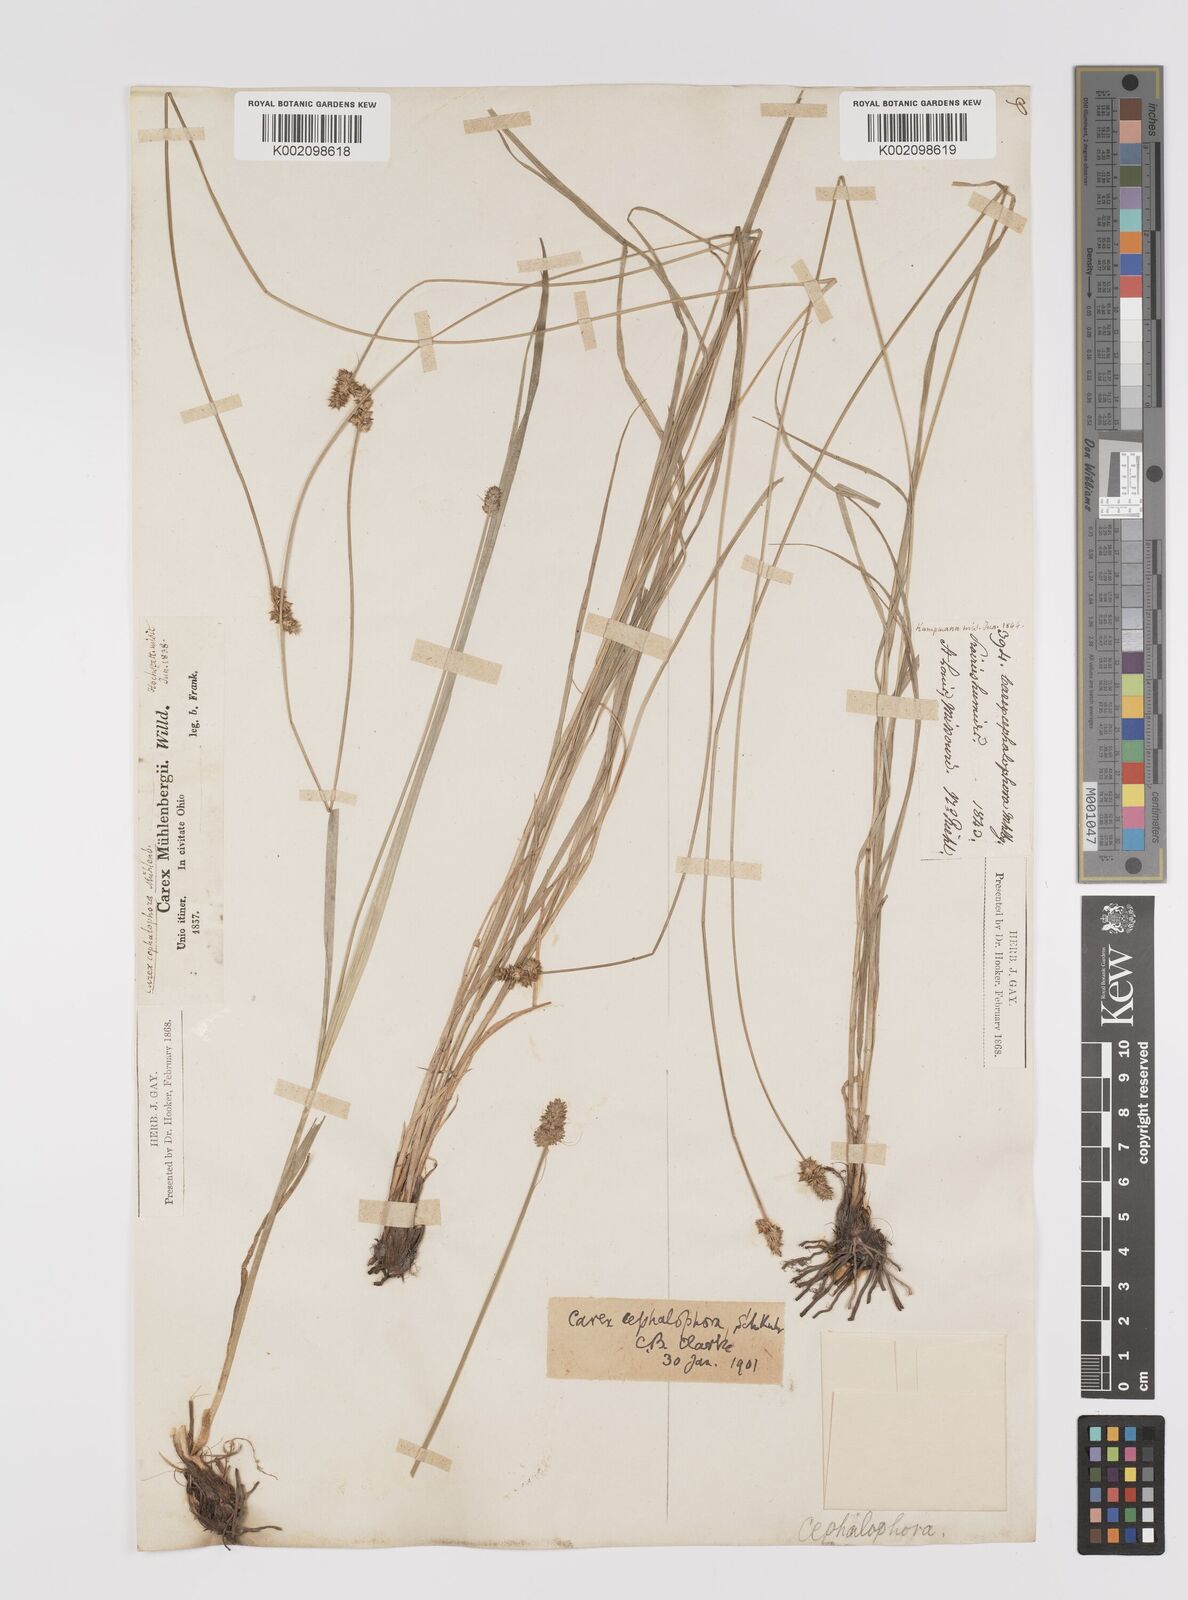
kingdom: Plantae
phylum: Tracheophyta
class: Liliopsida
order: Poales
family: Cyperaceae
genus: Carex
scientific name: Carex cephalophora
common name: Oval-headed sedge
